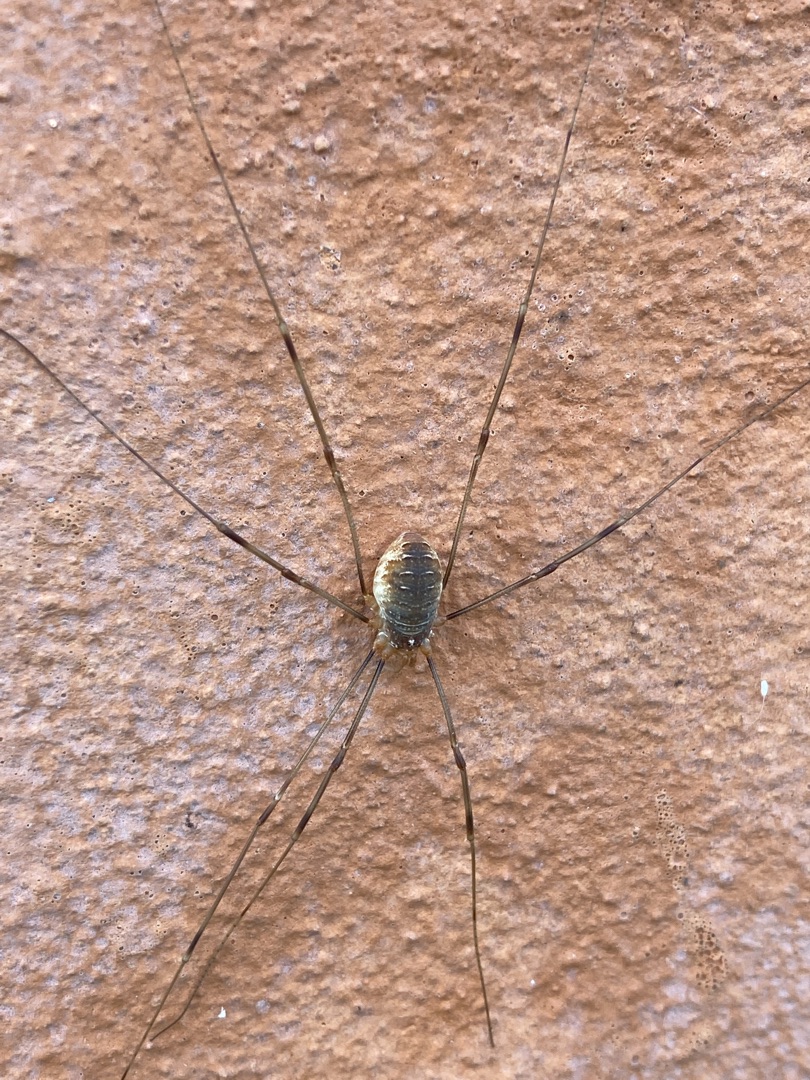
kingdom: Animalia
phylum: Arthropoda
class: Arachnida
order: Opiliones
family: Phalangiidae
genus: Opilio
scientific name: Opilio canestrinii
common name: Orange vægmejer
